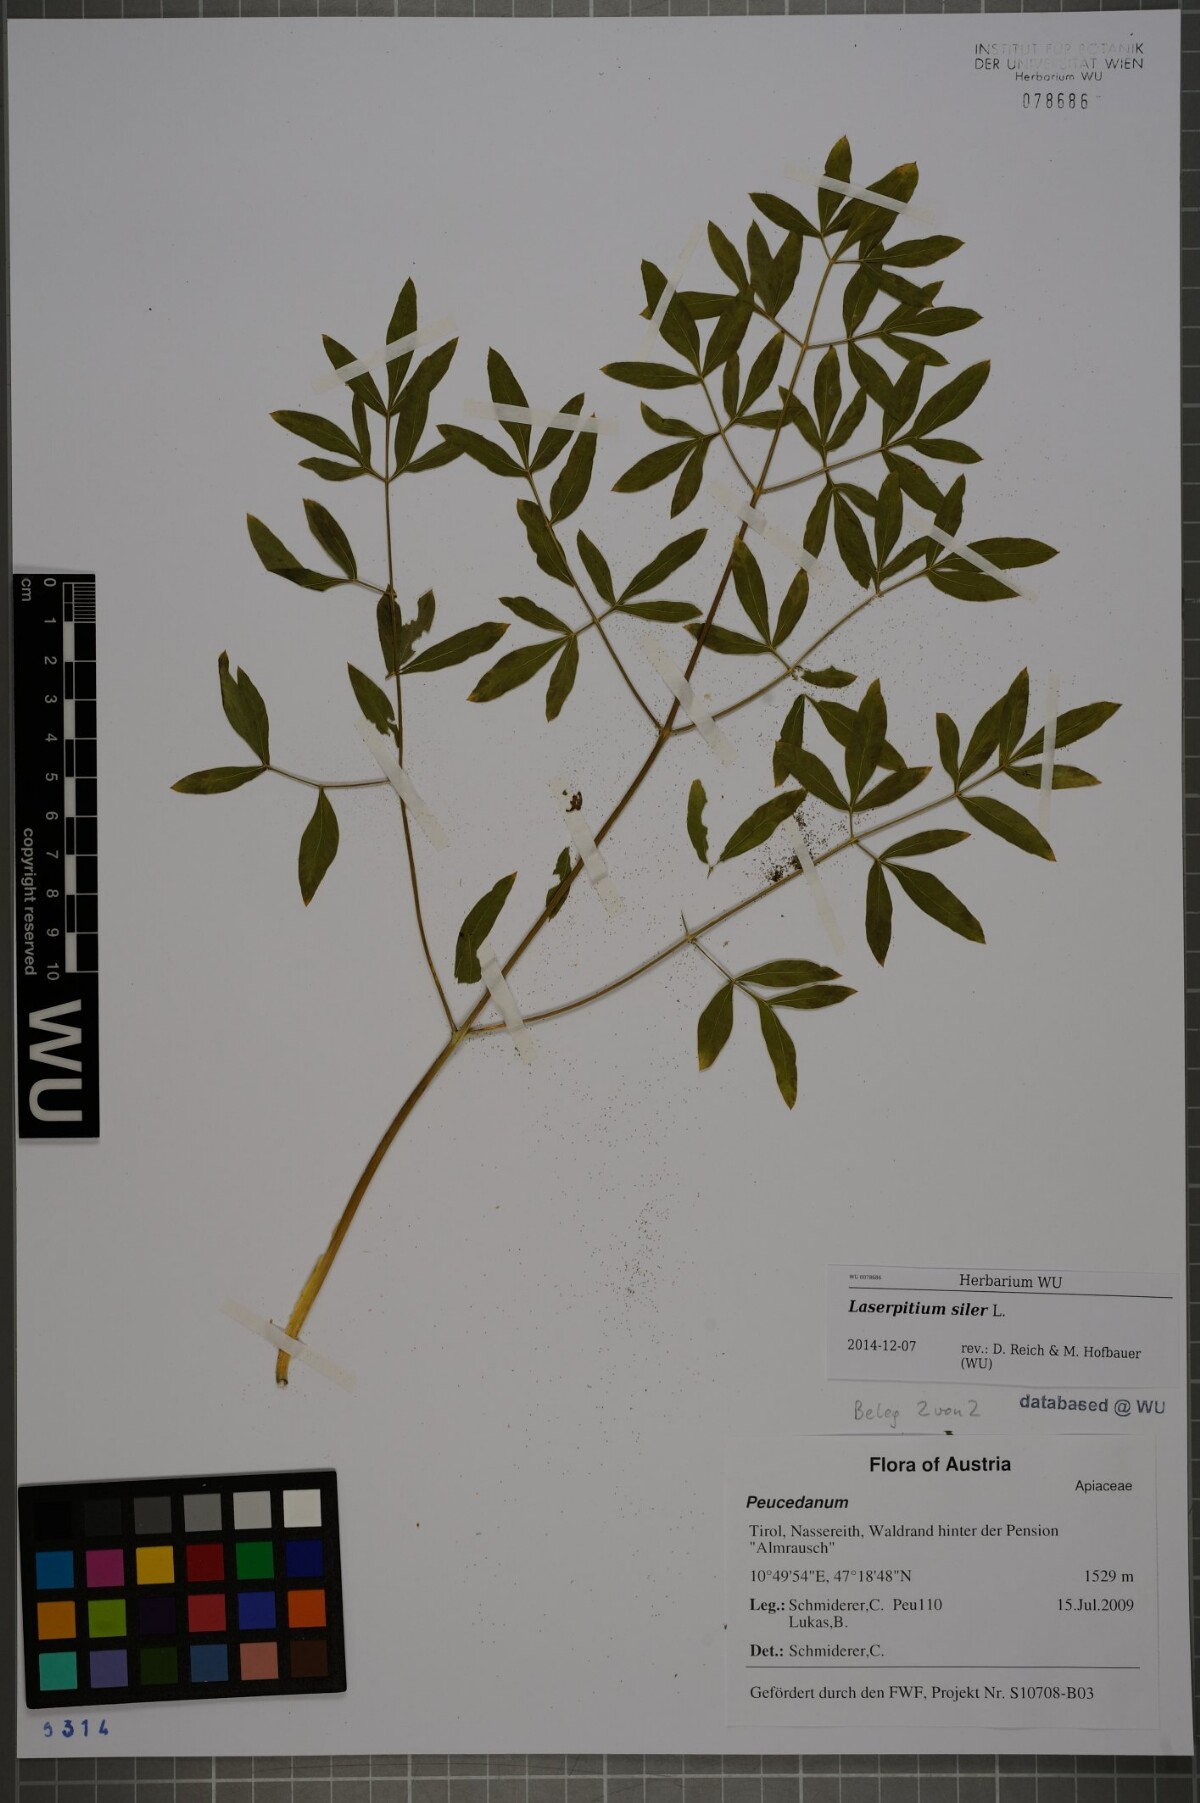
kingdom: Plantae
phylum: Tracheophyta
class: Magnoliopsida
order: Apiales
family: Apiaceae
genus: Siler
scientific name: Siler montanum
